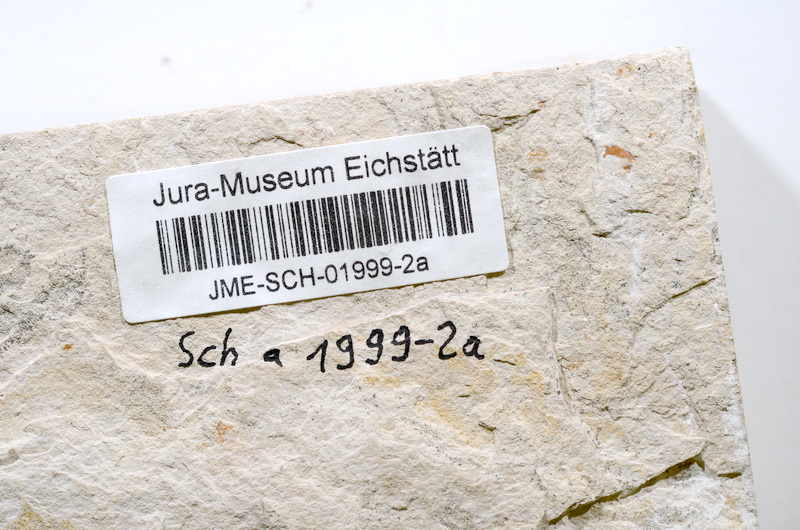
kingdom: Animalia
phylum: Chordata
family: Ascalaboidae
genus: Tharsis
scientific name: Tharsis dubius
